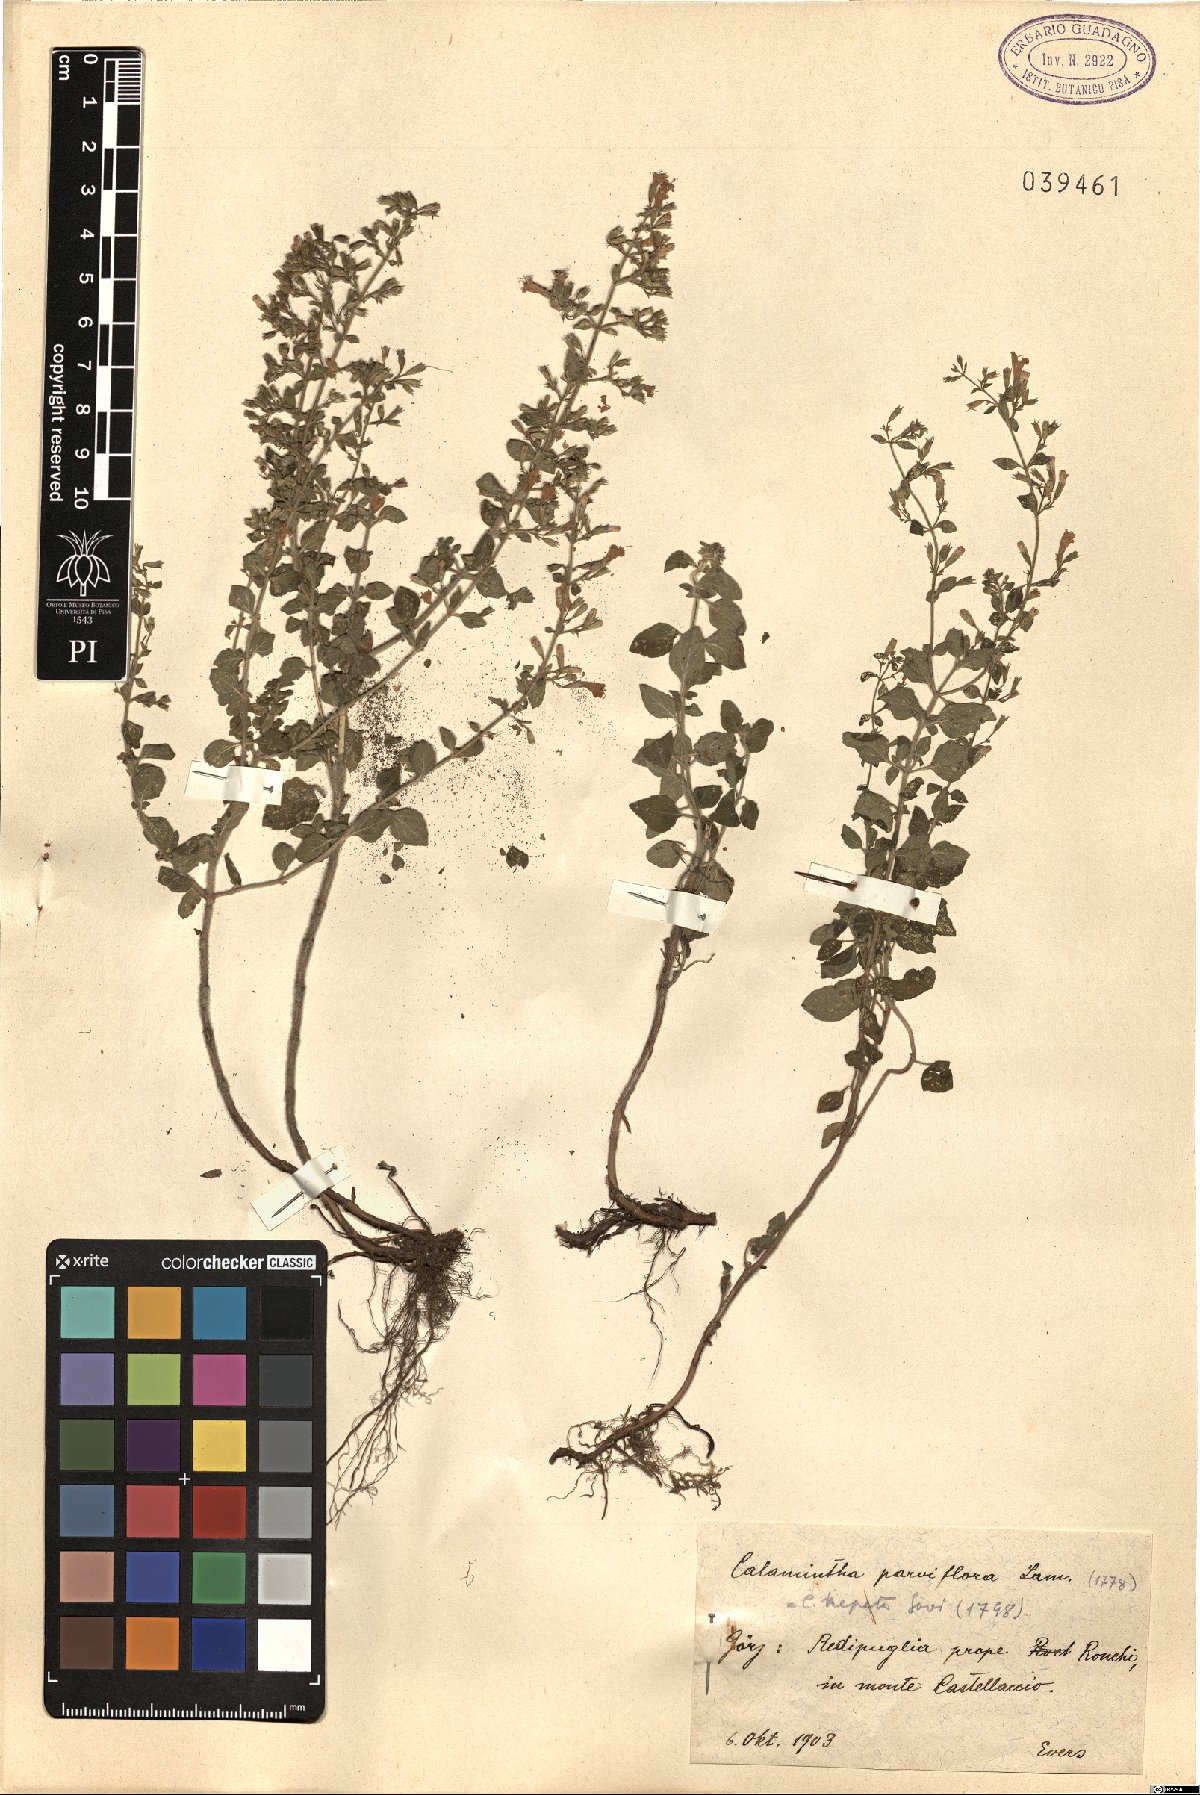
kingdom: Plantae
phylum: Tracheophyta
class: Magnoliopsida
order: Lamiales
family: Lamiaceae
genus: Clinopodium
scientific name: Clinopodium nepeta
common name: Lesser calamint
